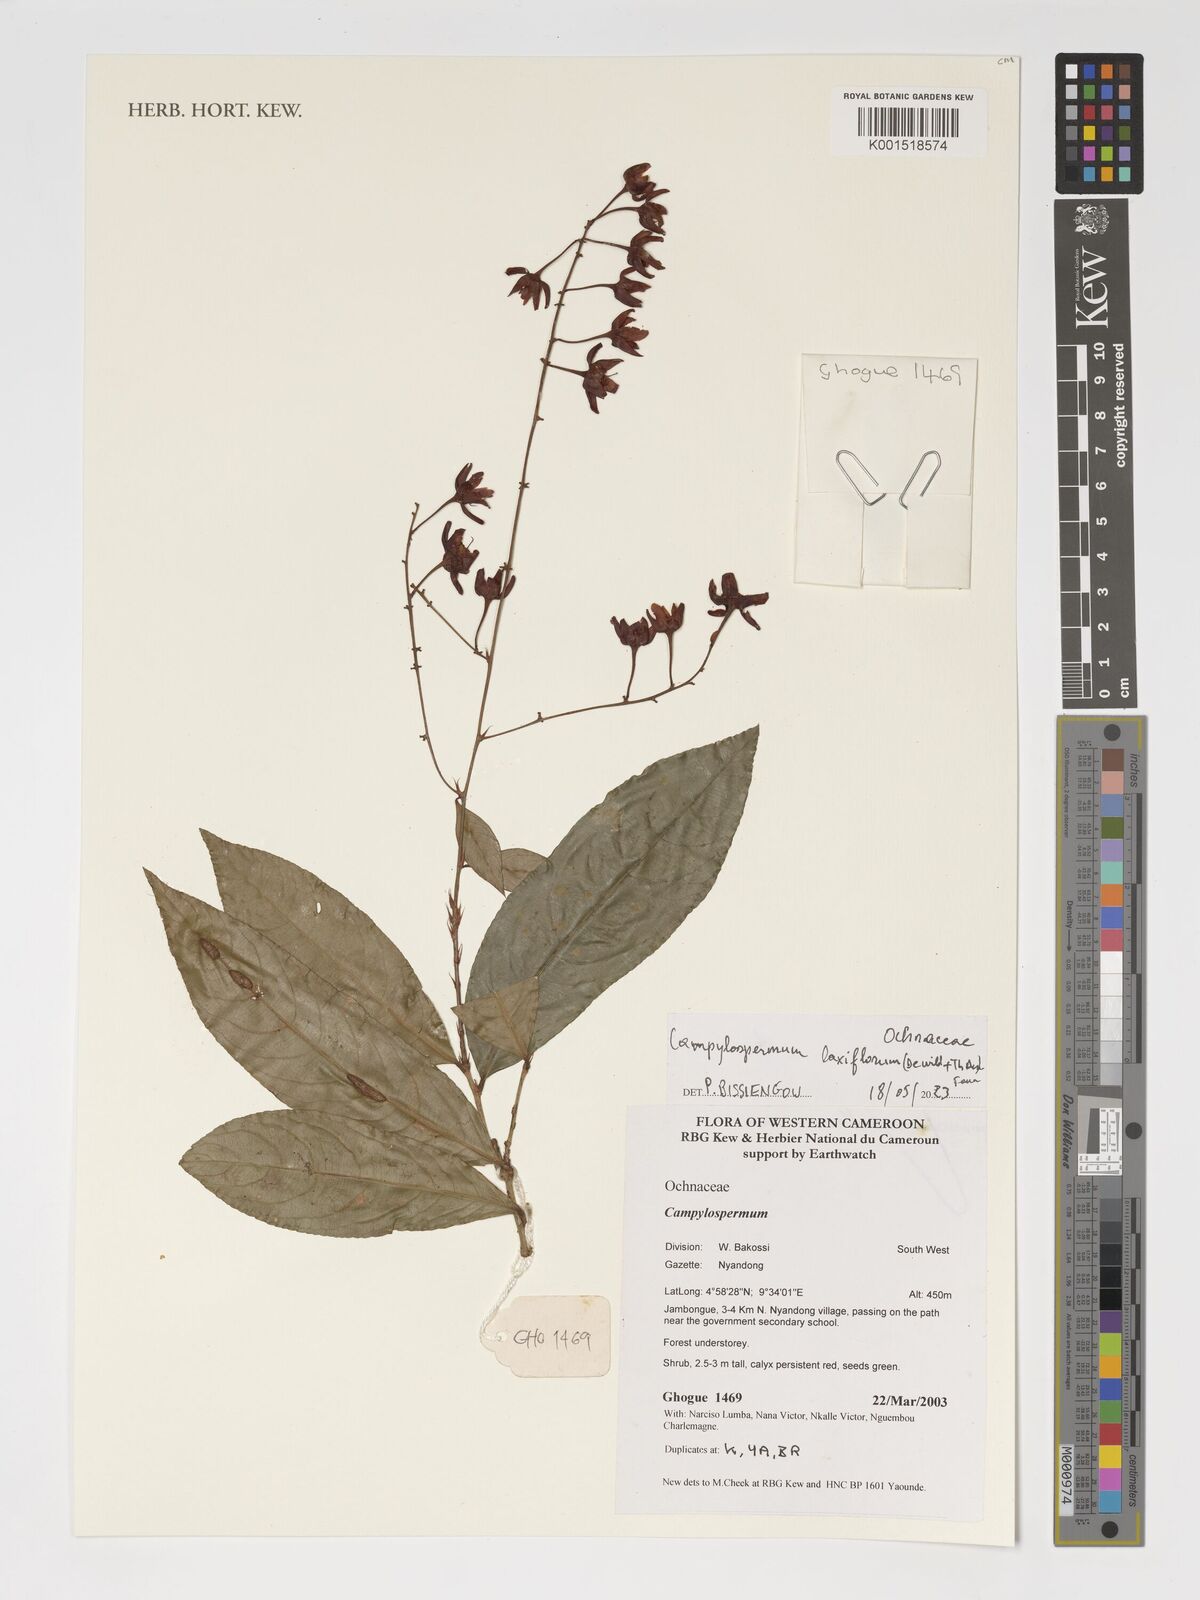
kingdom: Plantae
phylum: Tracheophyta
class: Magnoliopsida
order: Malpighiales
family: Ochnaceae
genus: Campylospermum
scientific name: Campylospermum laxiflorum
